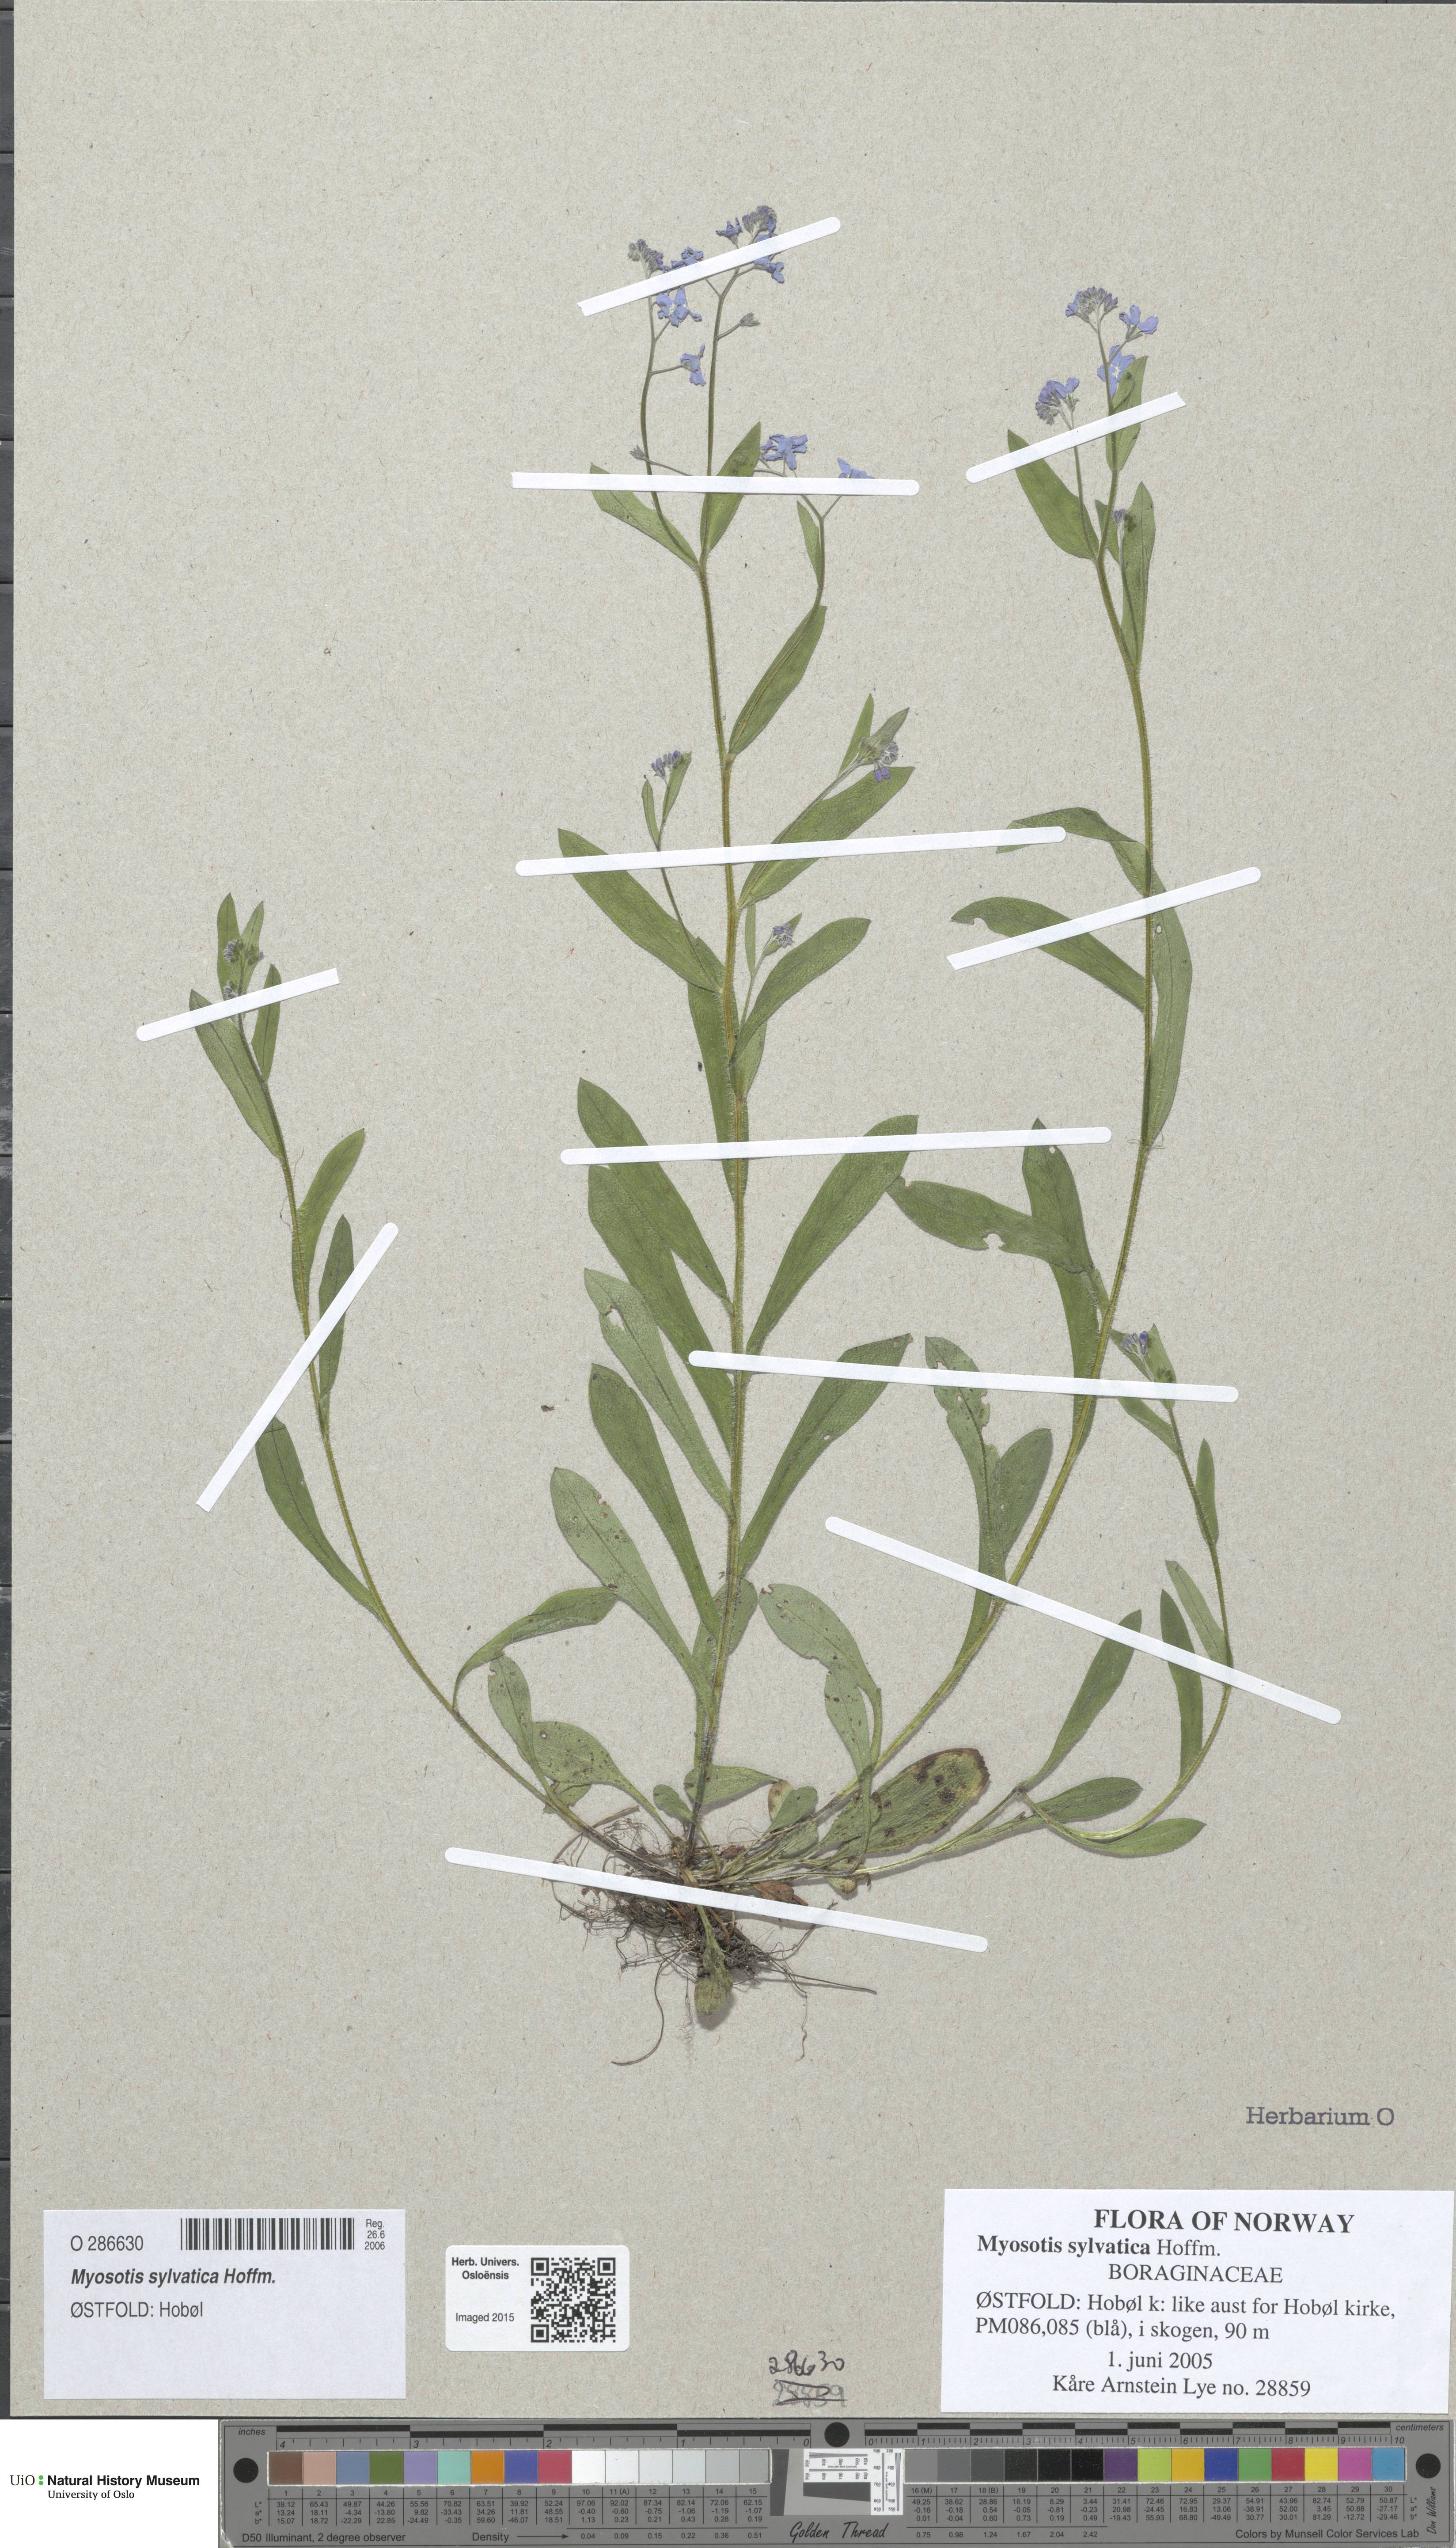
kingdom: Plantae
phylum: Tracheophyta
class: Magnoliopsida
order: Boraginales
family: Boraginaceae
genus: Myosotis
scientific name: Myosotis sylvatica
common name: Wood forget-me-not
